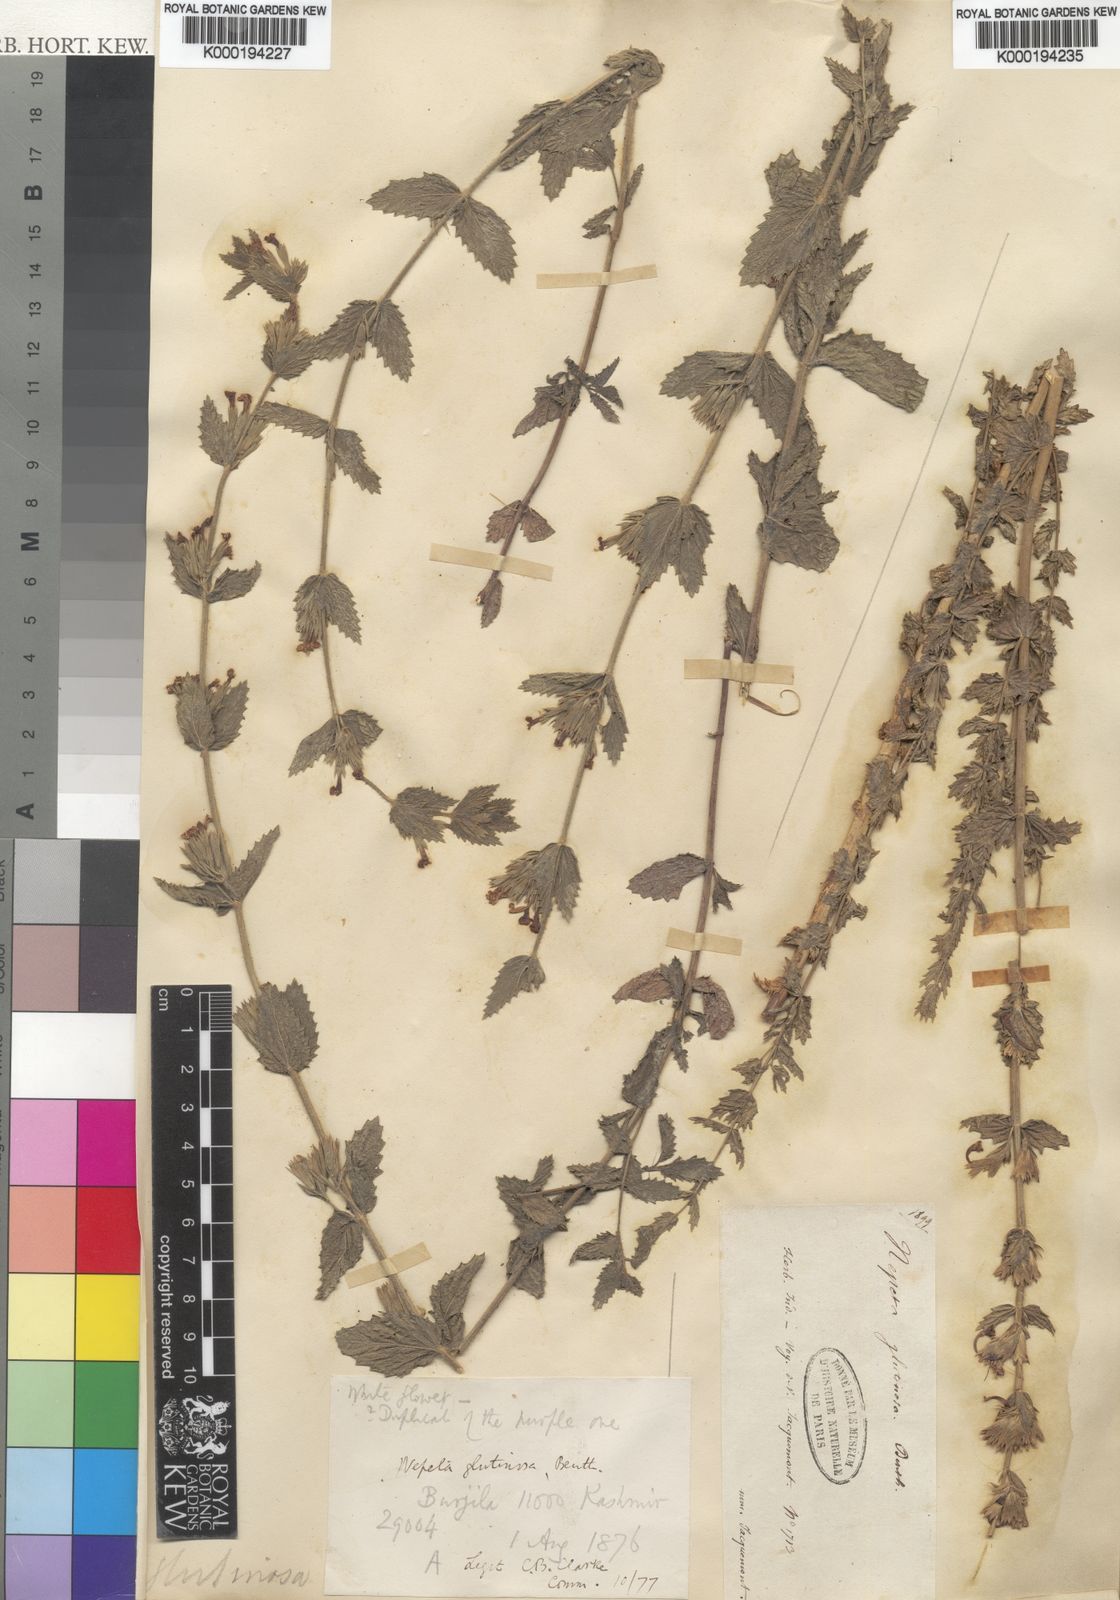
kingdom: Plantae
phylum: Tracheophyta
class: Magnoliopsida
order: Lamiales
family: Lamiaceae
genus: Nepeta
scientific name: Nepeta glutinosa
